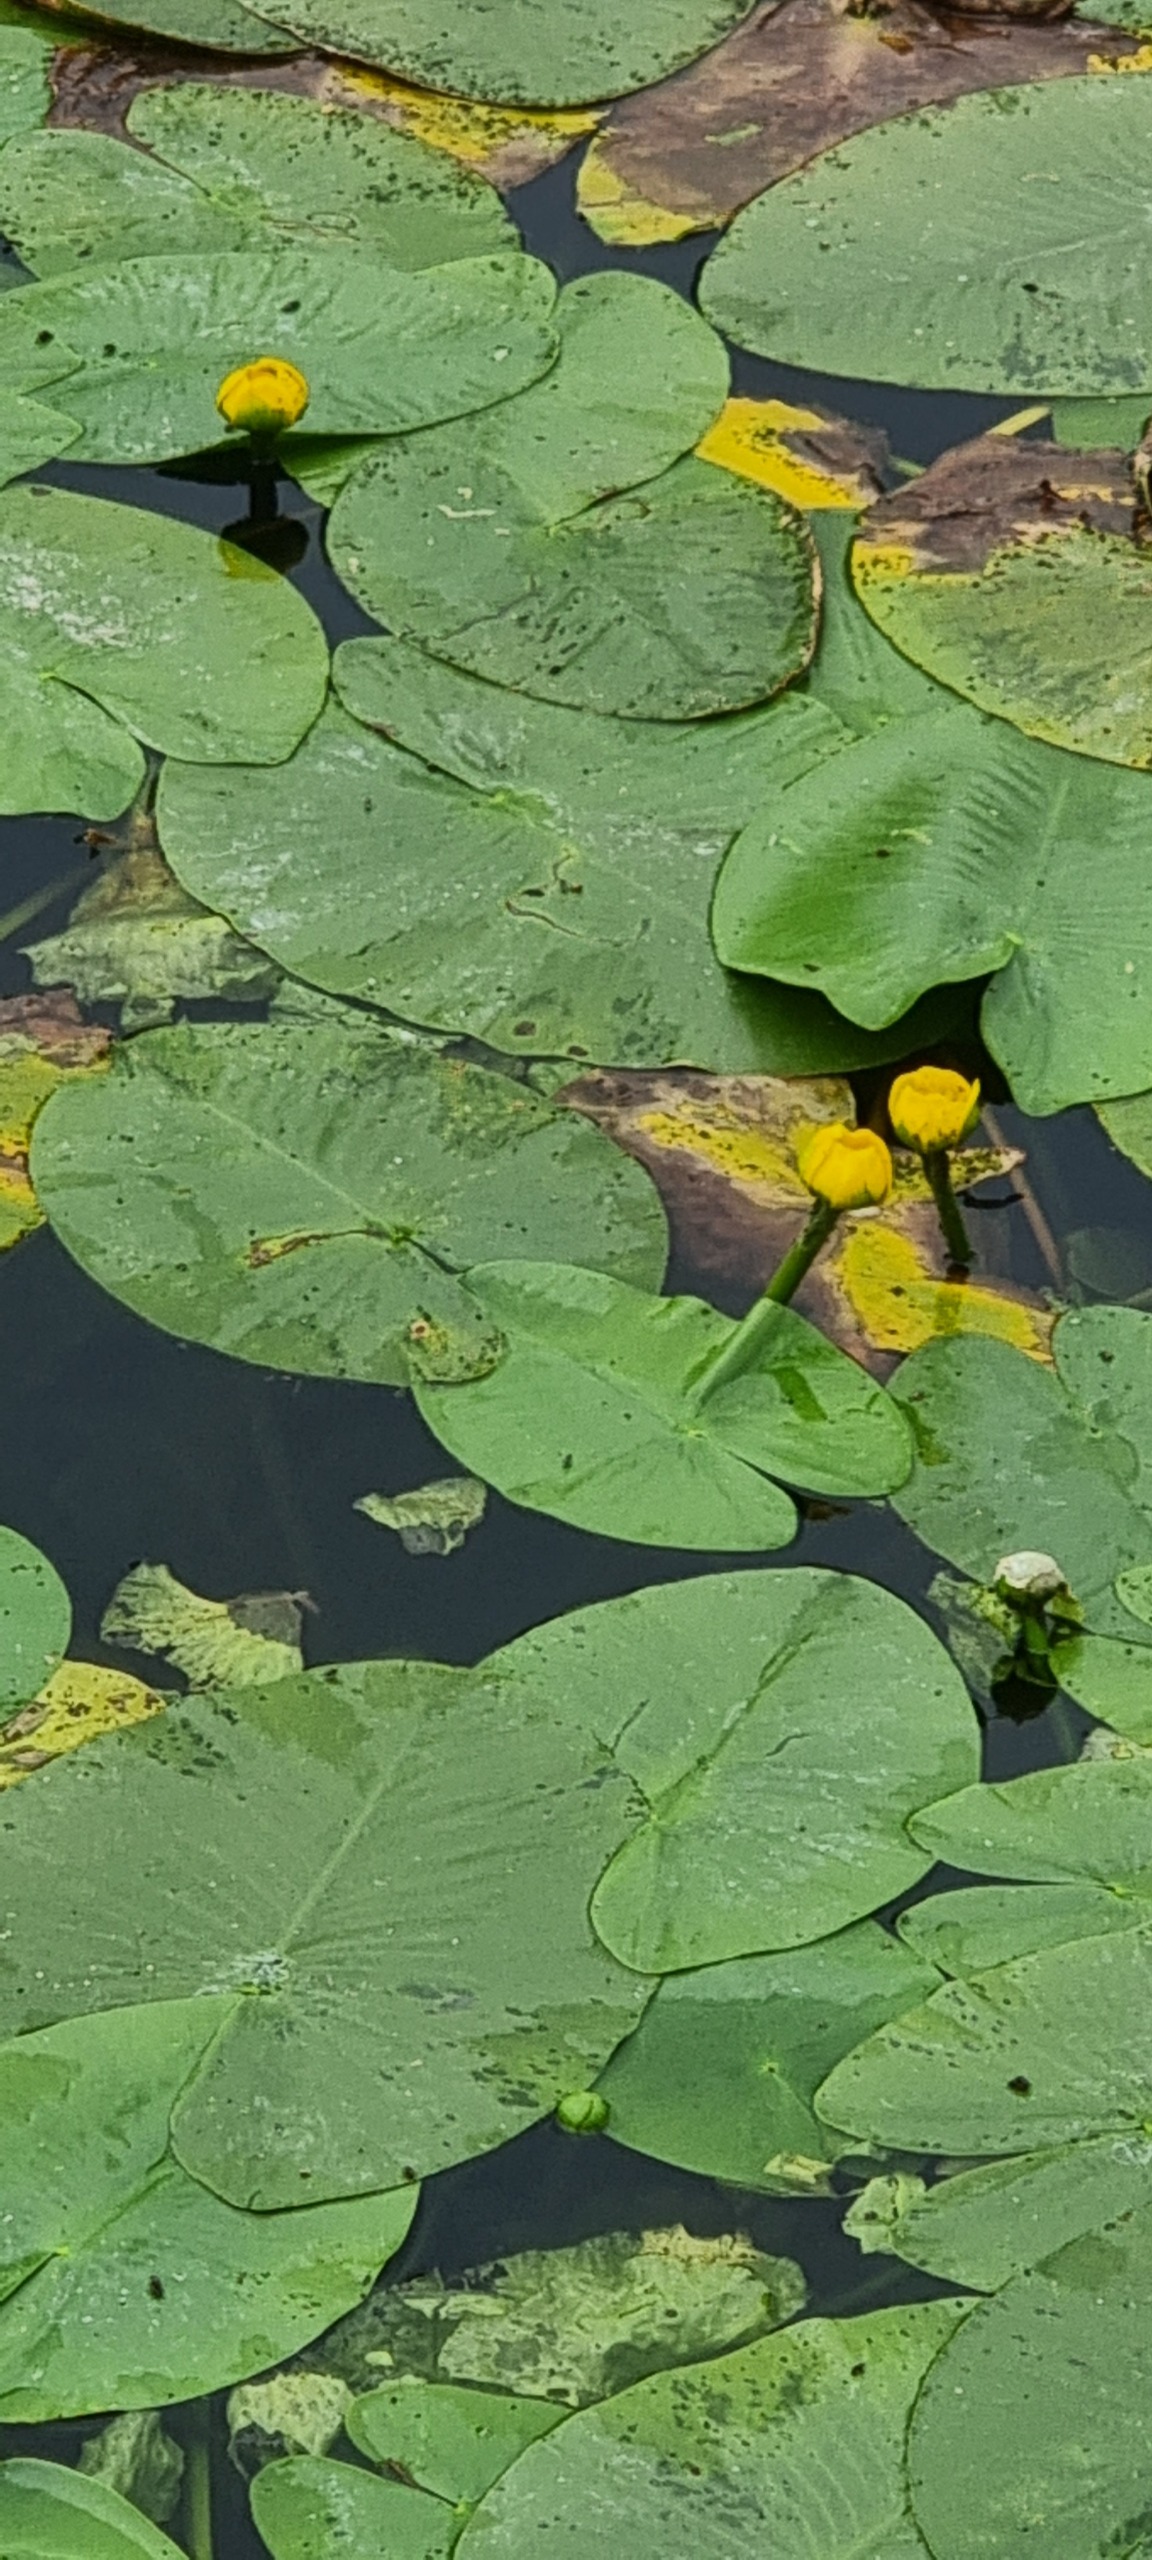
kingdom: Plantae
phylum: Tracheophyta
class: Magnoliopsida
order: Nymphaeales
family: Nymphaeaceae
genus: Nuphar
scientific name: Nuphar lutea
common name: Gul åkande
